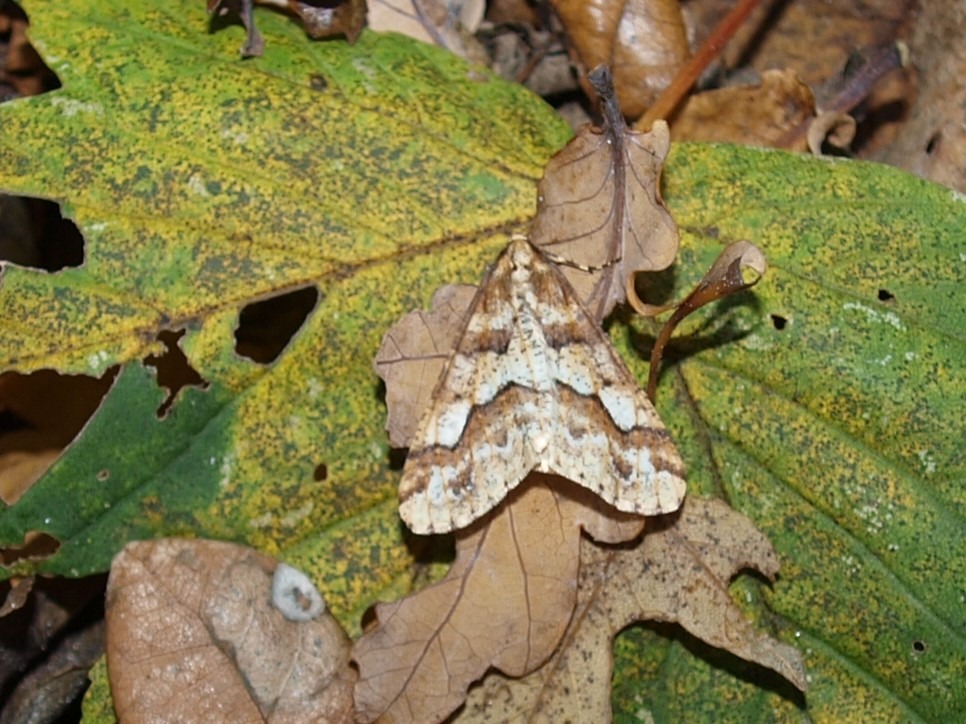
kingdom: Animalia
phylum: Arthropoda
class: Insecta
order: Lepidoptera
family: Geometridae
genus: Erannis
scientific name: Erannis defoliaria
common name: Stor frostmåler
